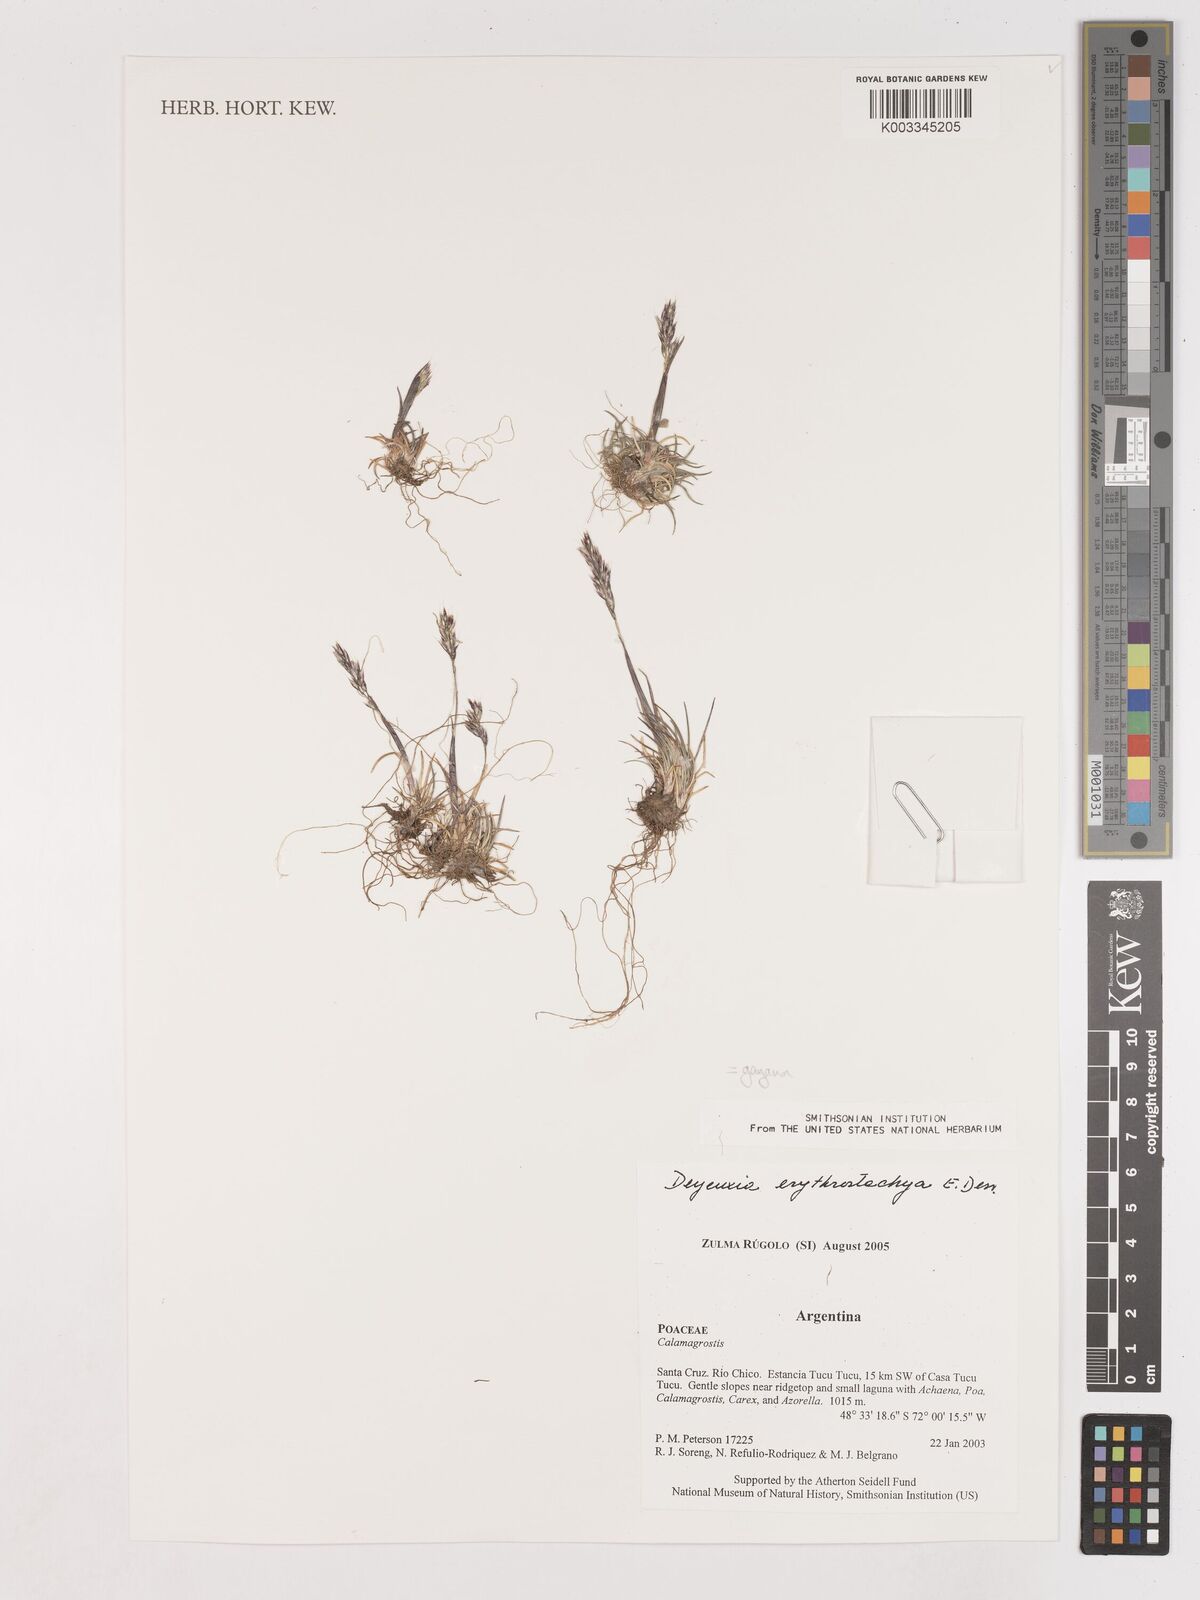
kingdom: Plantae
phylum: Tracheophyta
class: Liliopsida
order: Poales
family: Poaceae
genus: Calamagrostis
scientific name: Calamagrostis
